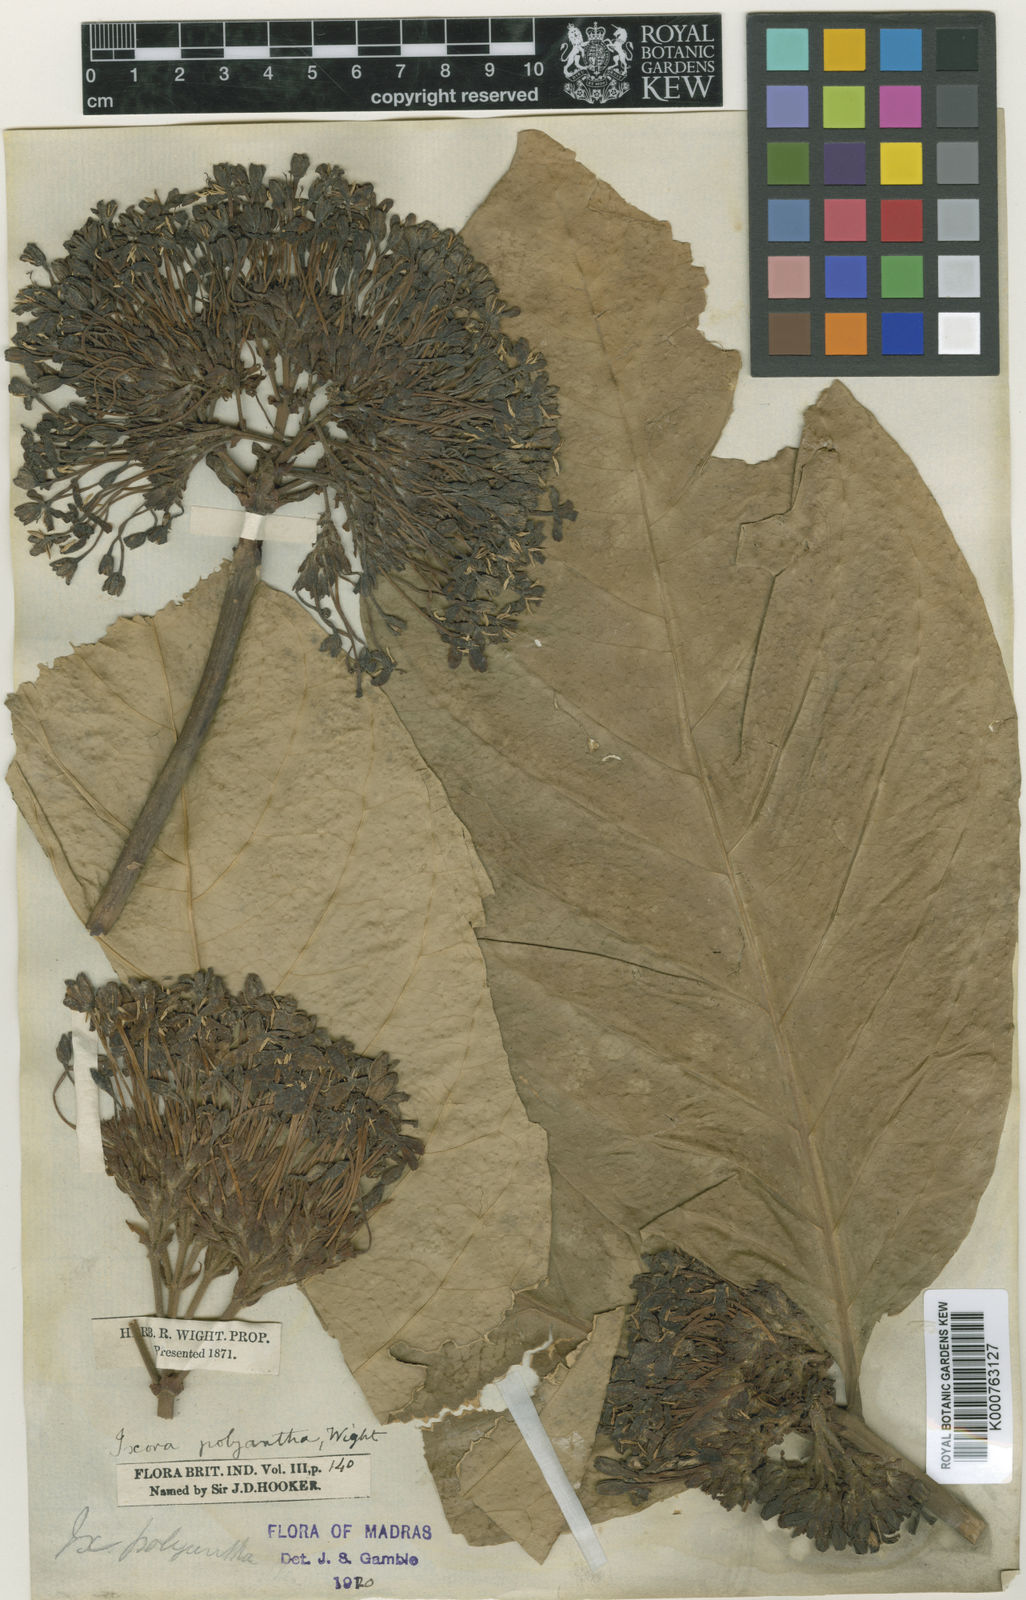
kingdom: Plantae
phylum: Tracheophyta
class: Magnoliopsida
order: Gentianales
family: Rubiaceae
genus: Ixora
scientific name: Ixora polyantha
